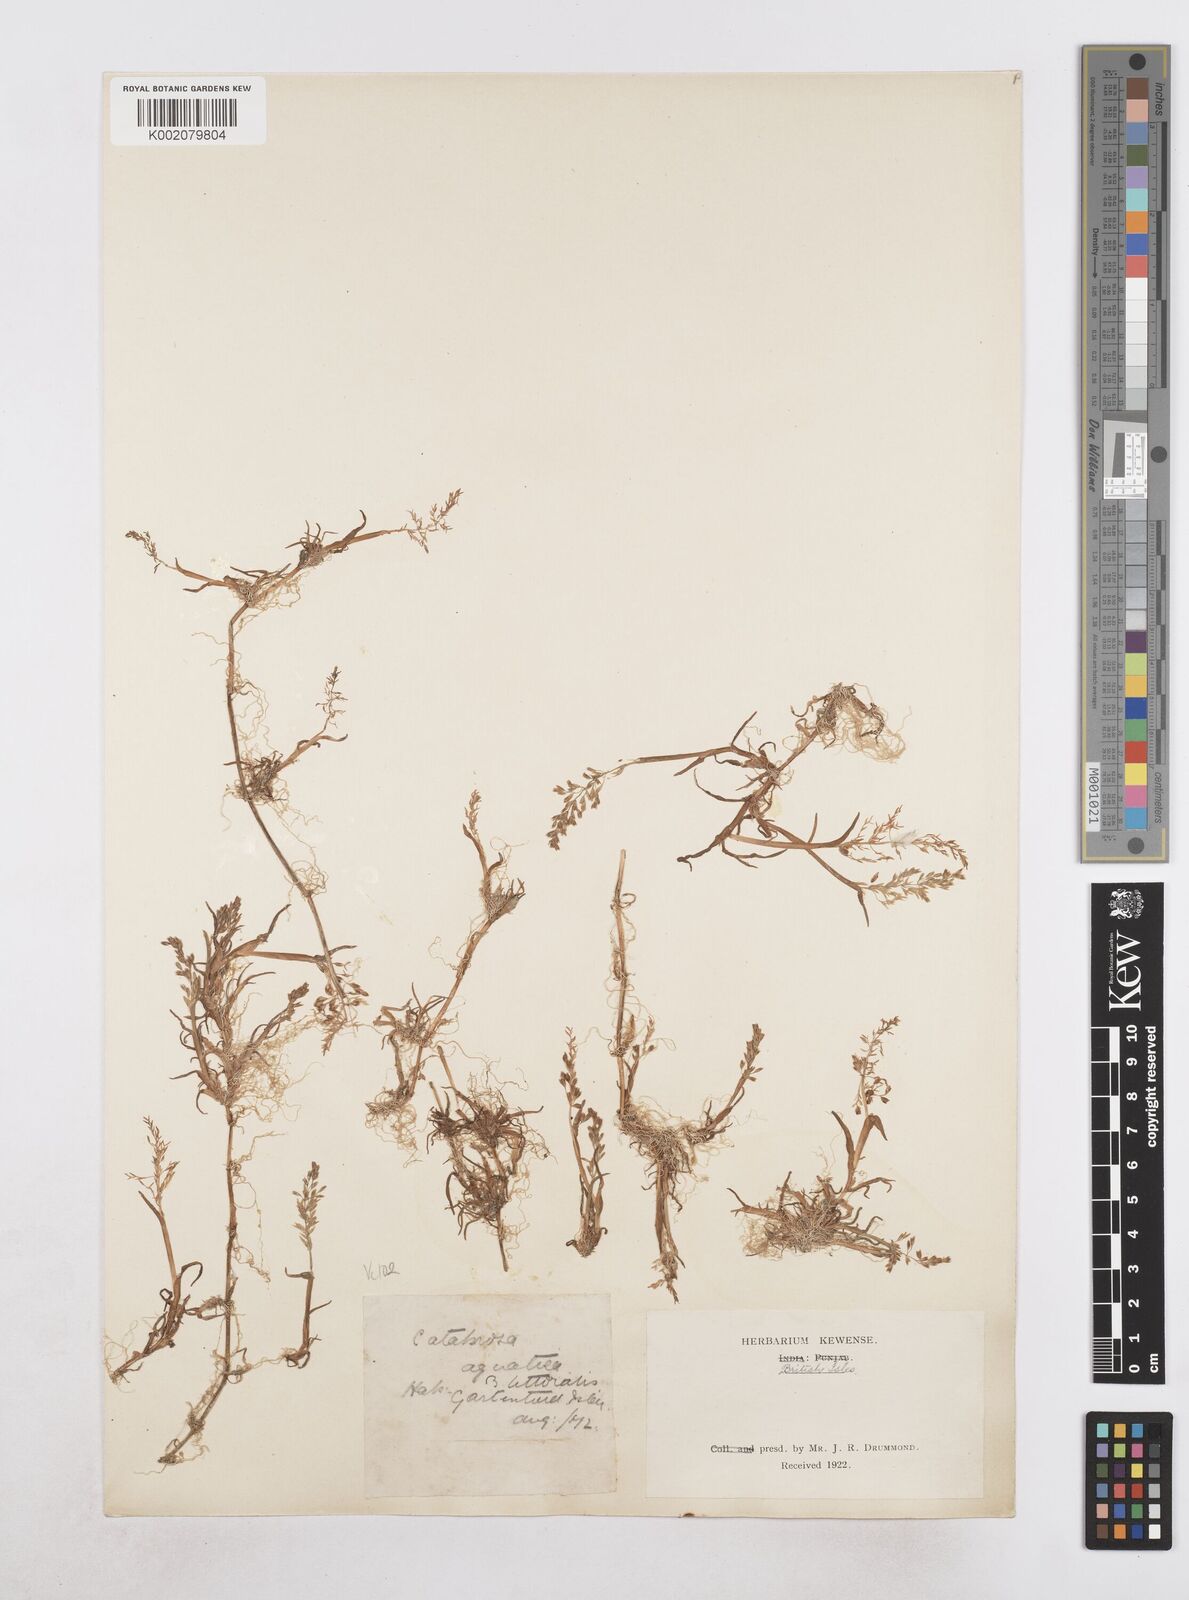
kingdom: Plantae
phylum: Tracheophyta
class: Liliopsida
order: Poales
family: Poaceae
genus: Catabrosa
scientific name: Catabrosa aquatica
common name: Whorl-grass
